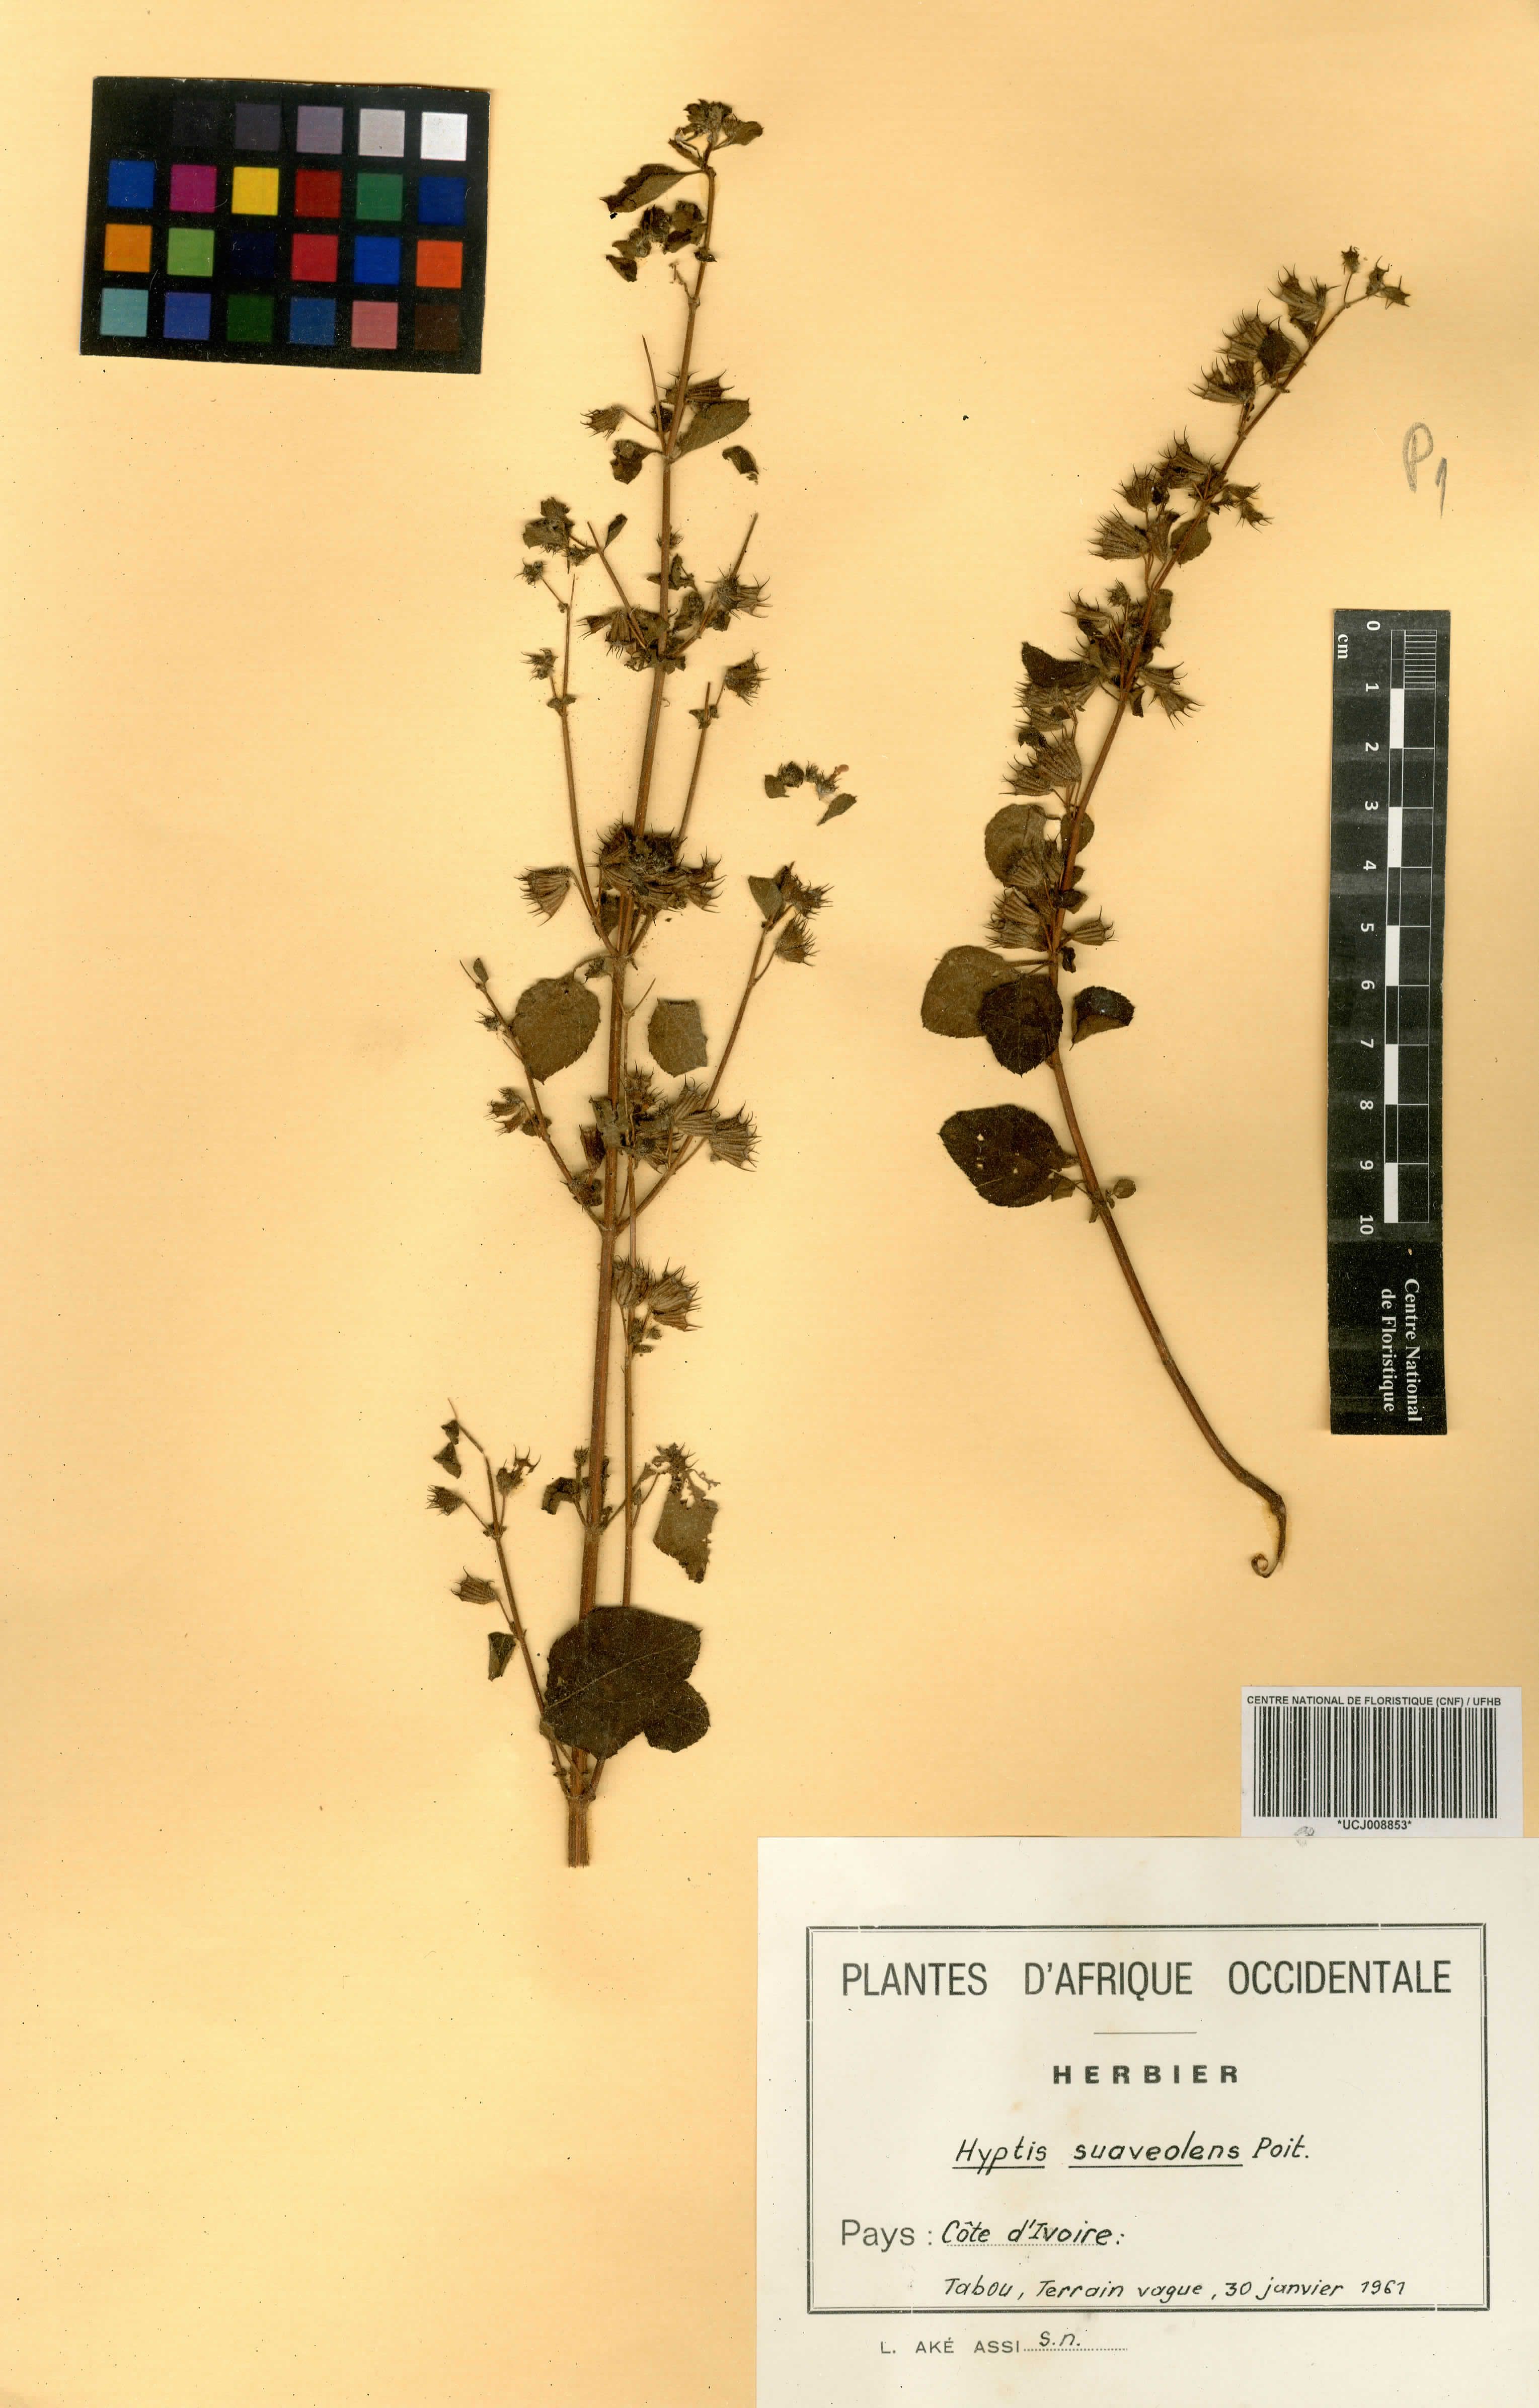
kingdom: Plantae
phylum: Tracheophyta
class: Magnoliopsida
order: Lamiales
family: Lamiaceae
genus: Mesosphaerum
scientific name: Mesosphaerum suaveolens
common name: Pignut
